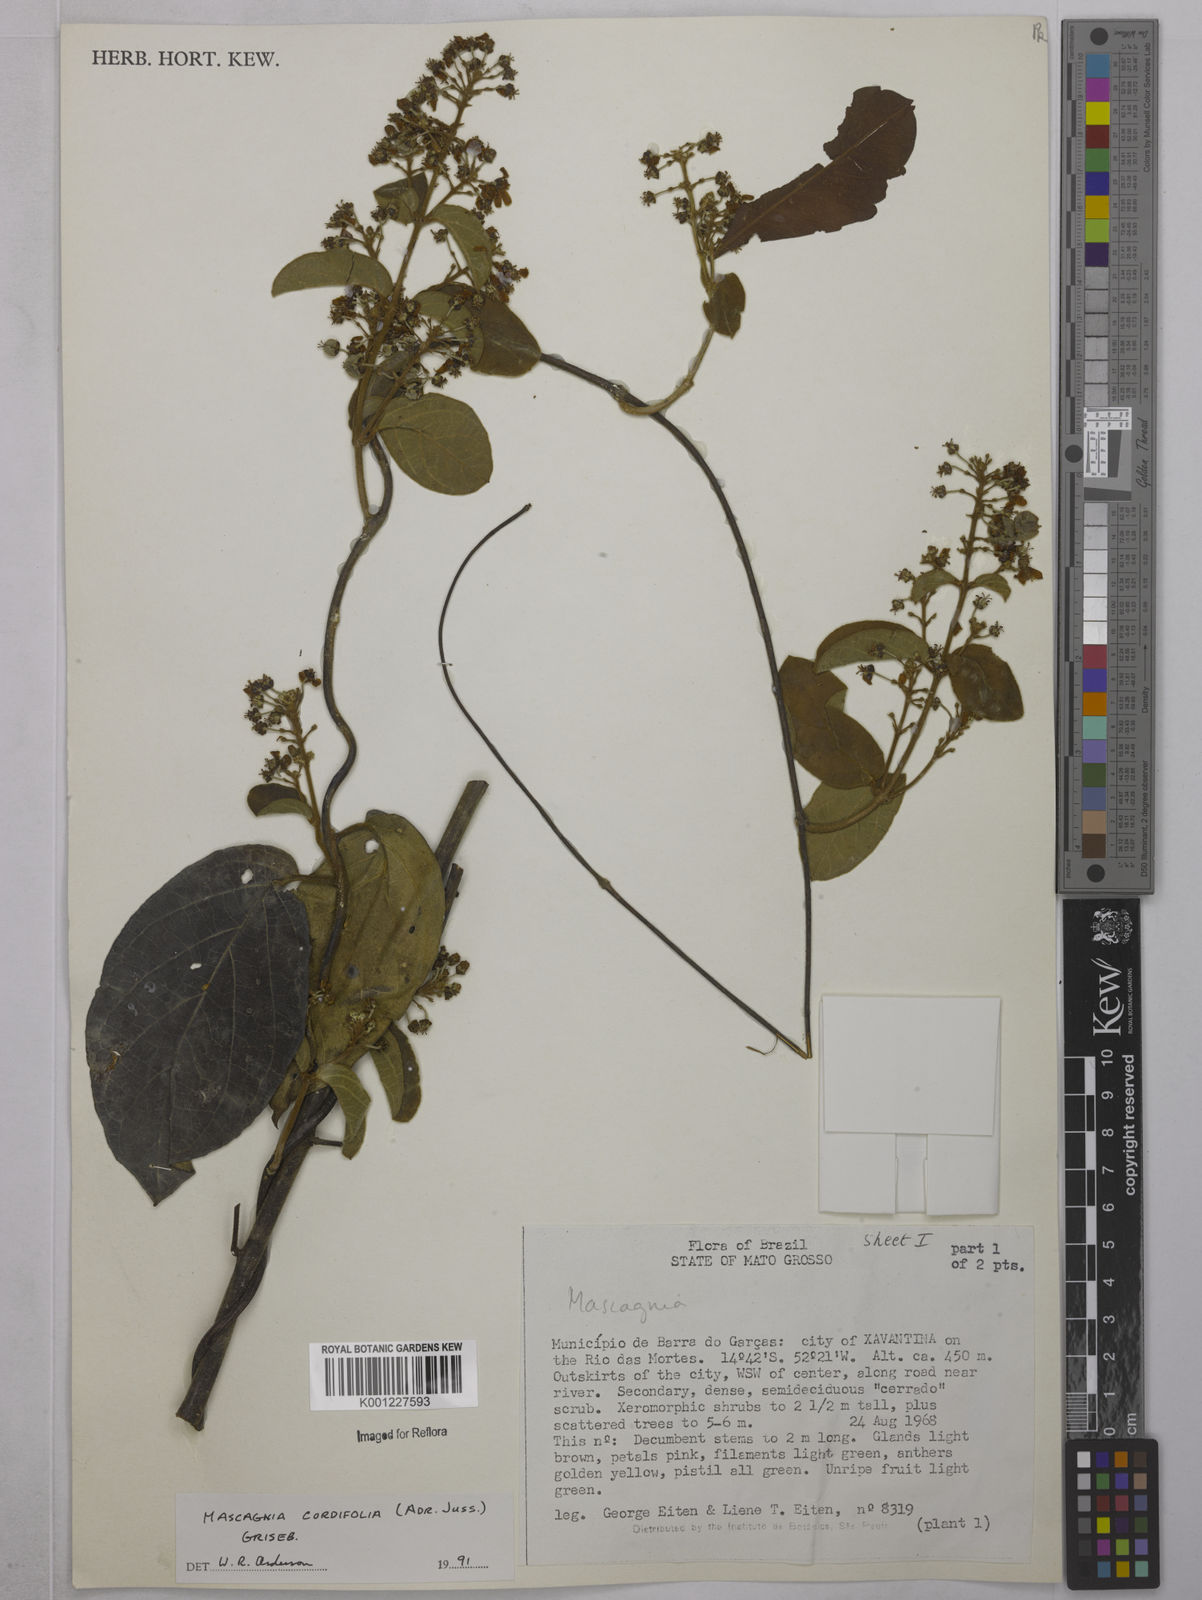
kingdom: Plantae
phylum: Tracheophyta
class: Magnoliopsida
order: Malpighiales
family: Malpighiaceae
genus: Mascagnia
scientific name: Mascagnia cordifolia
